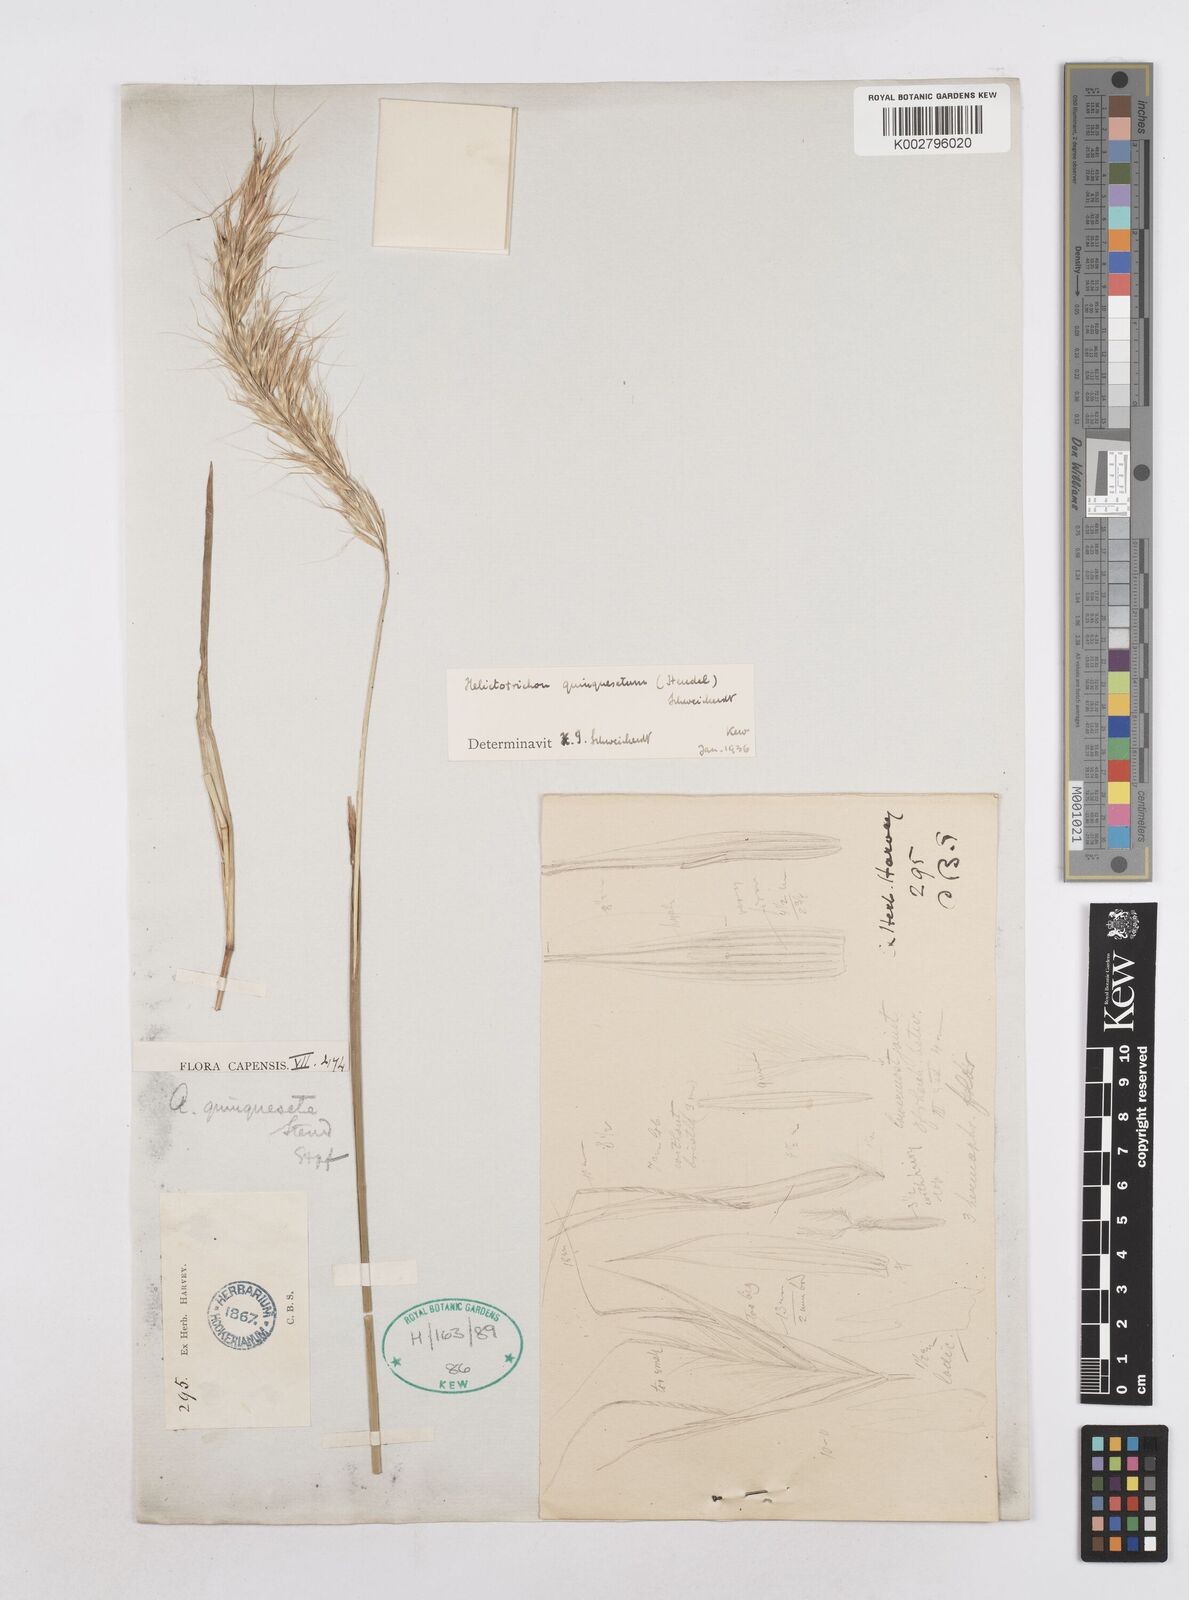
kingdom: Plantae
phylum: Tracheophyta
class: Liliopsida
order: Poales
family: Poaceae
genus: Trisetopsis
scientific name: Trisetopsis quinqueseta
